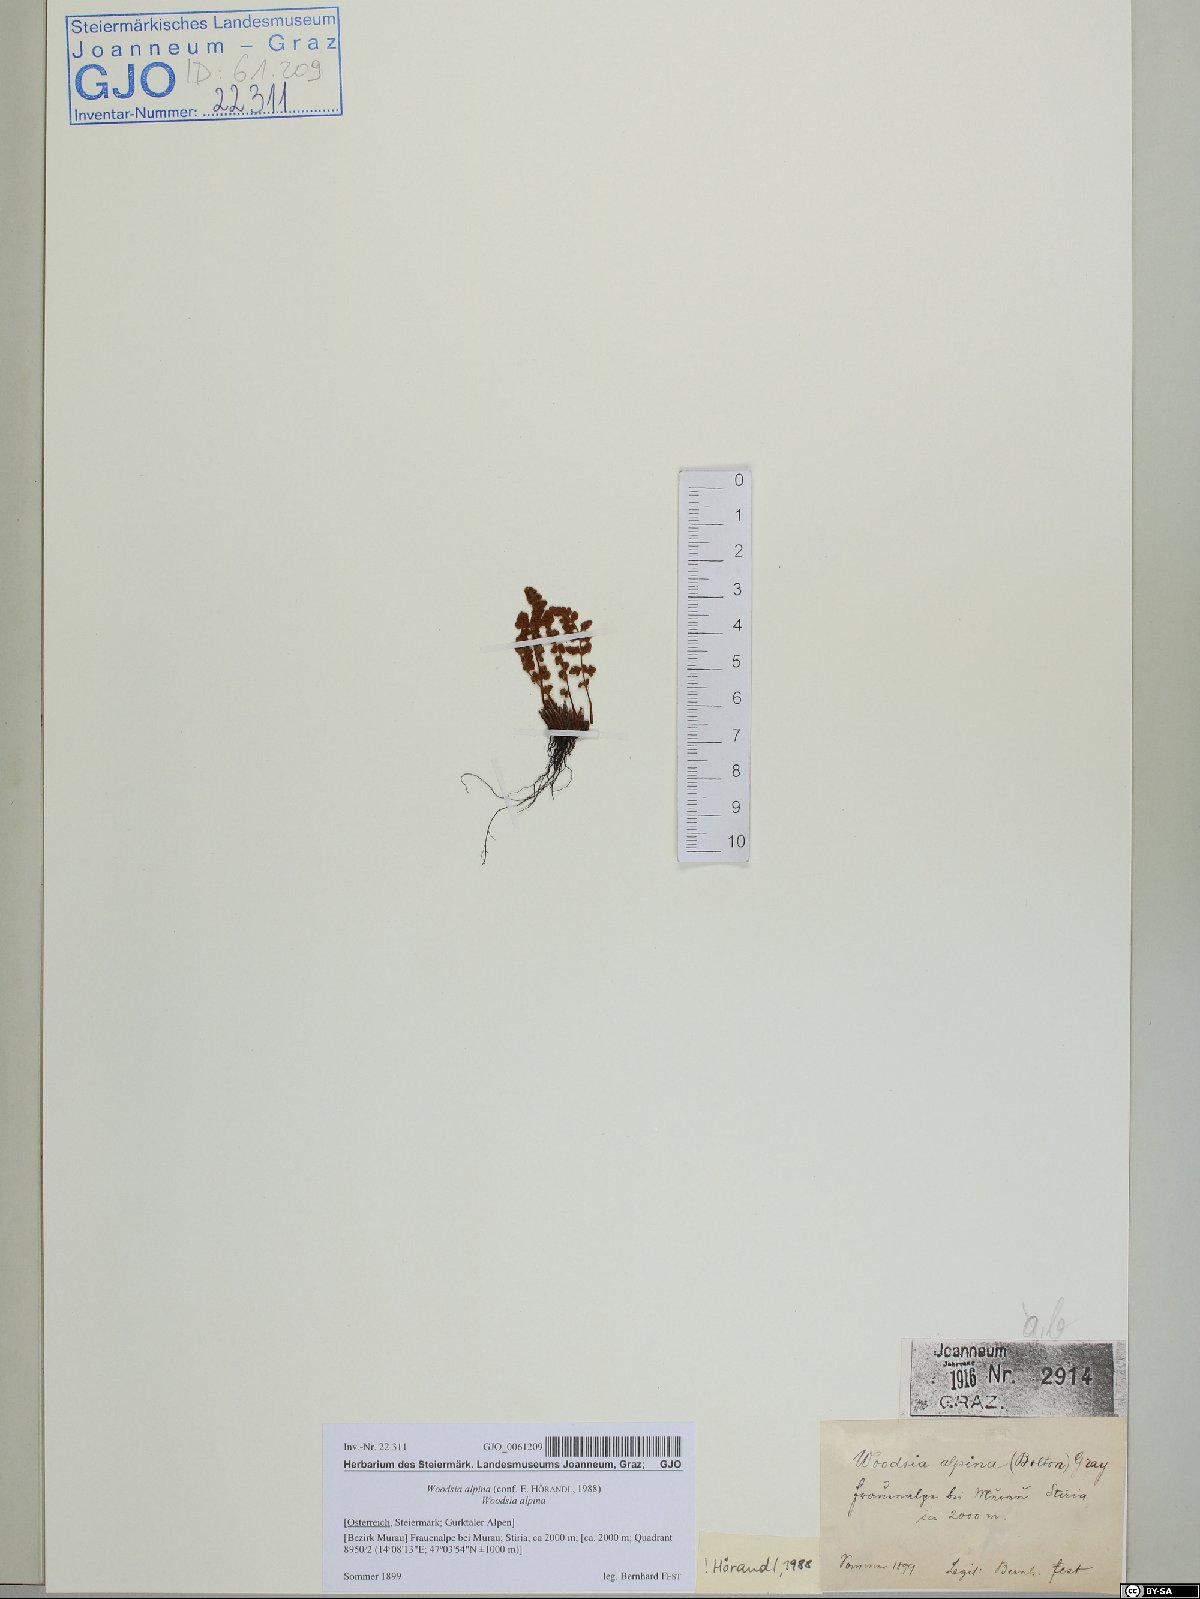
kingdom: Plantae
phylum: Tracheophyta
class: Polypodiopsida
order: Polypodiales
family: Woodsiaceae
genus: Woodsia
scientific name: Woodsia alpina
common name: Alpine woodsia
